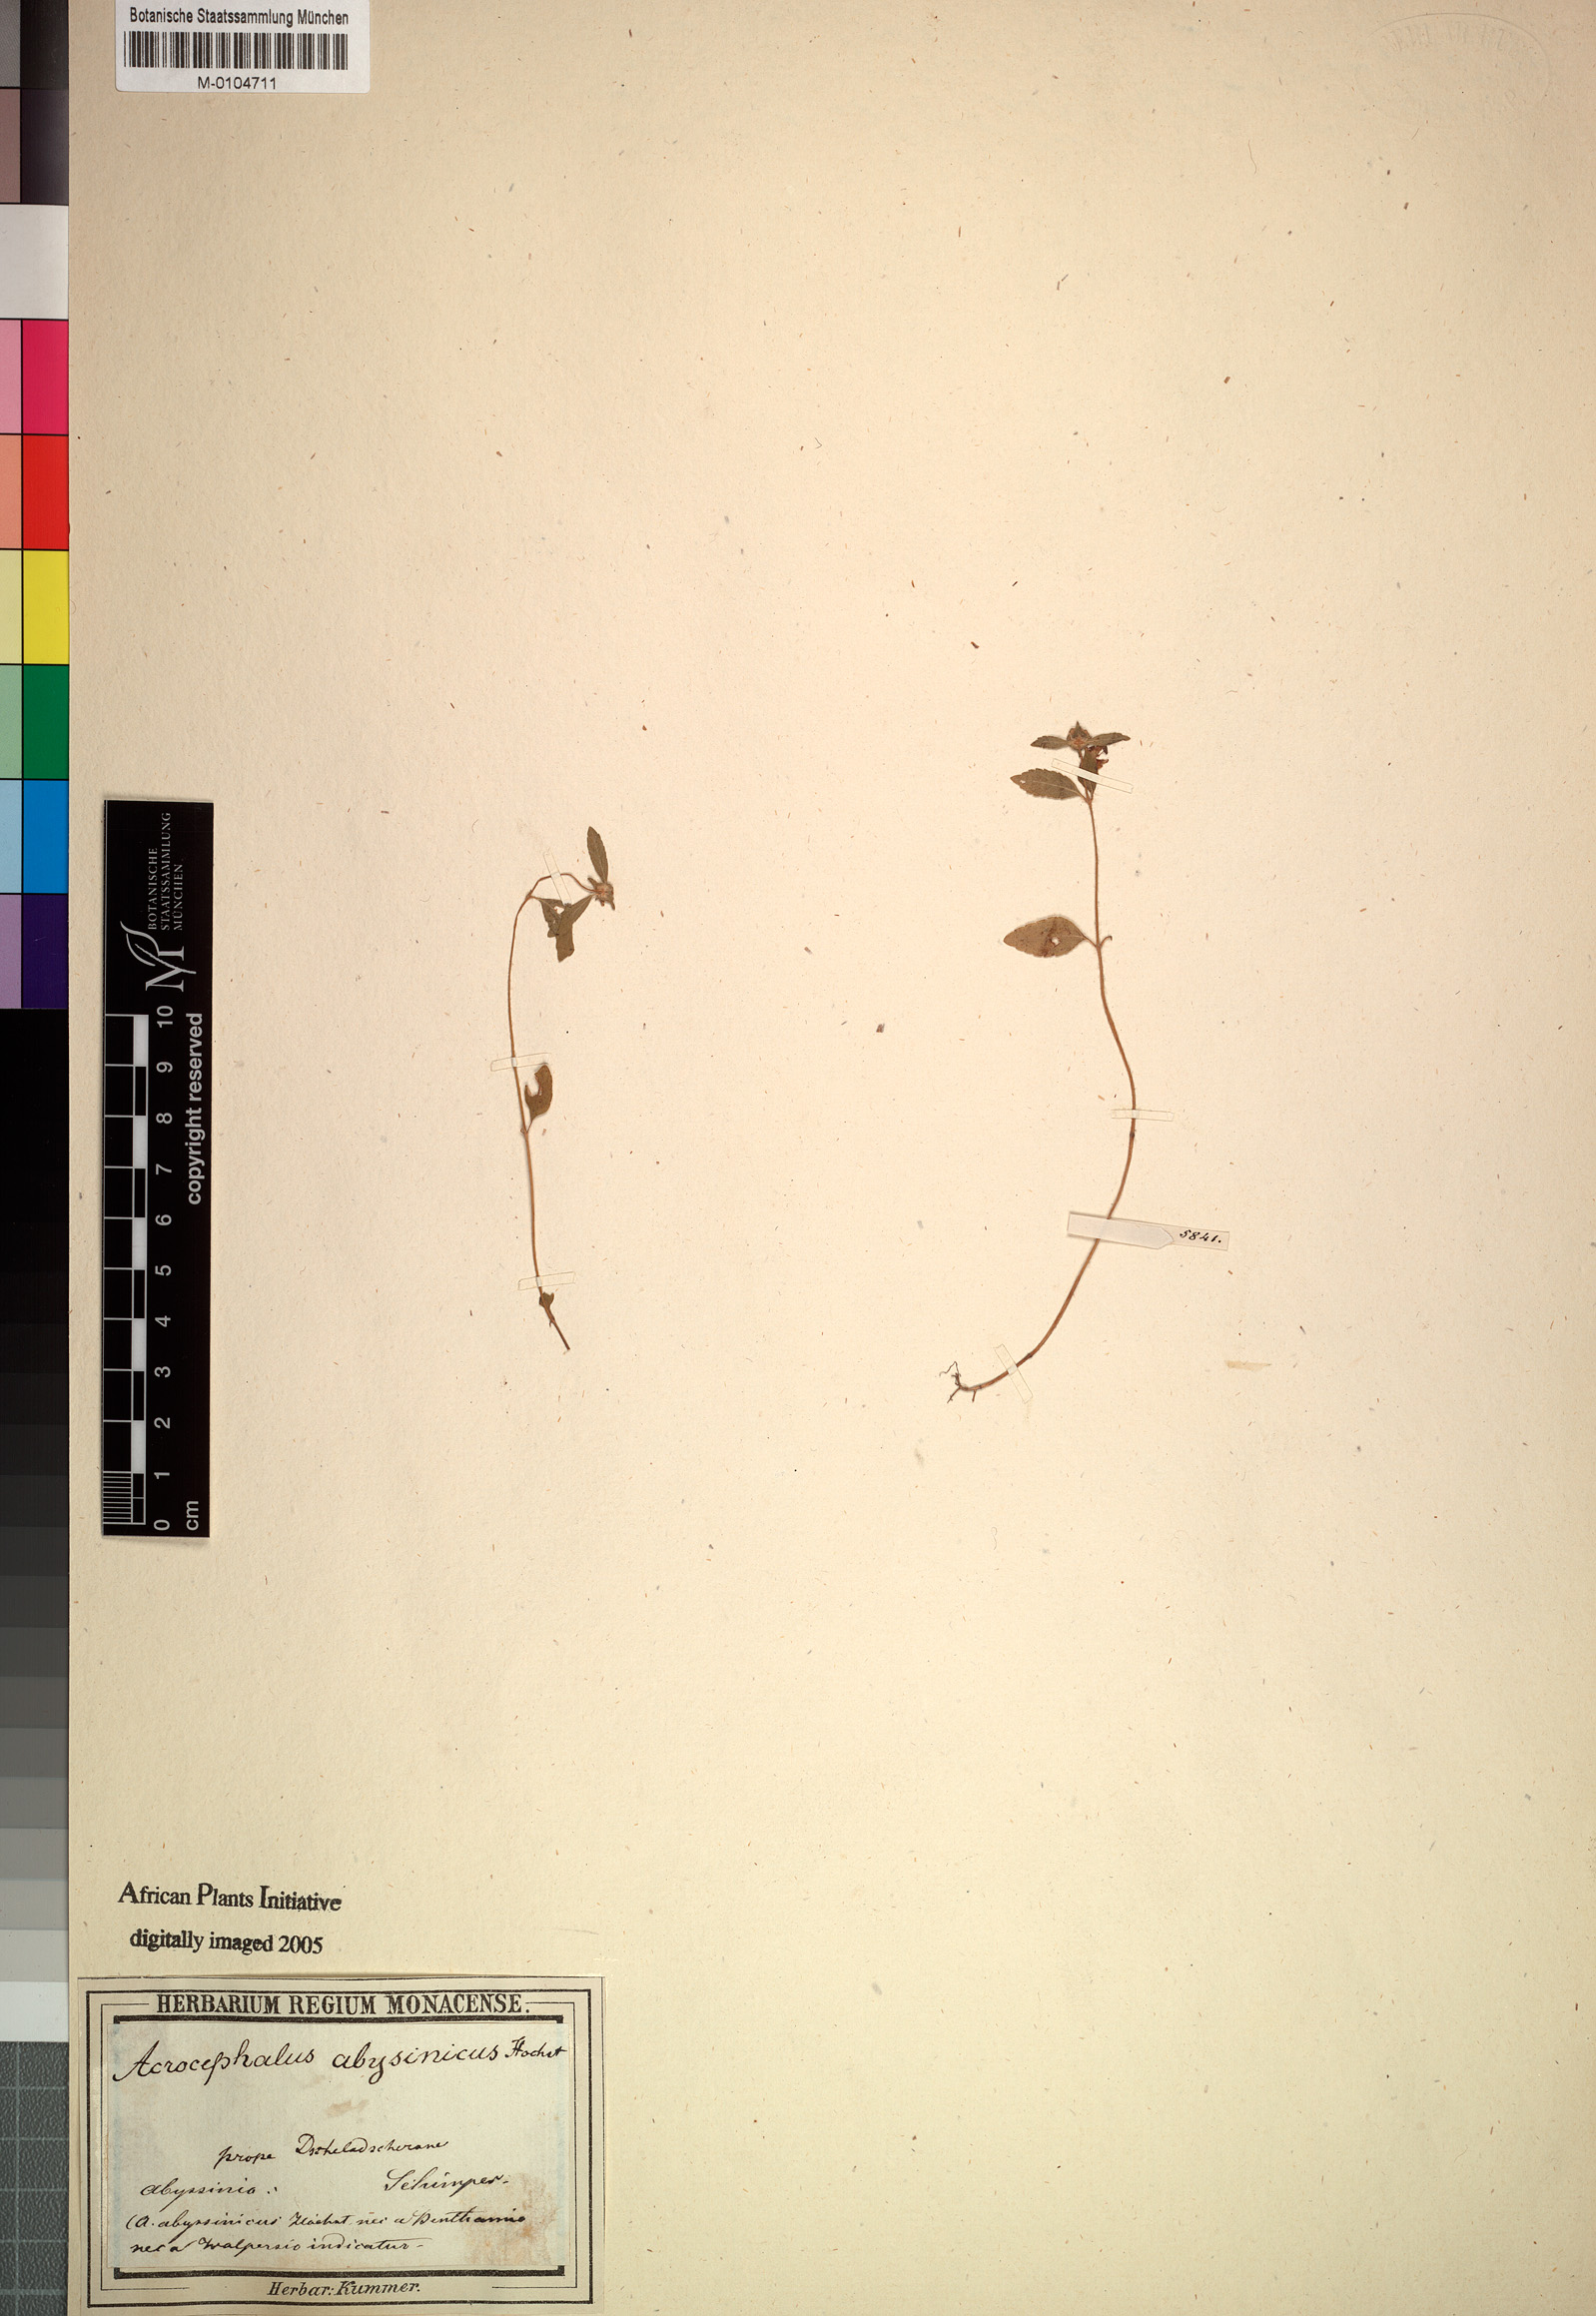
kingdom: Plantae
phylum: Tracheophyta
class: Magnoliopsida
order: Lamiales
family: Lamiaceae
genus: Haumaniastrum
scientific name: Haumaniastrum villosum
